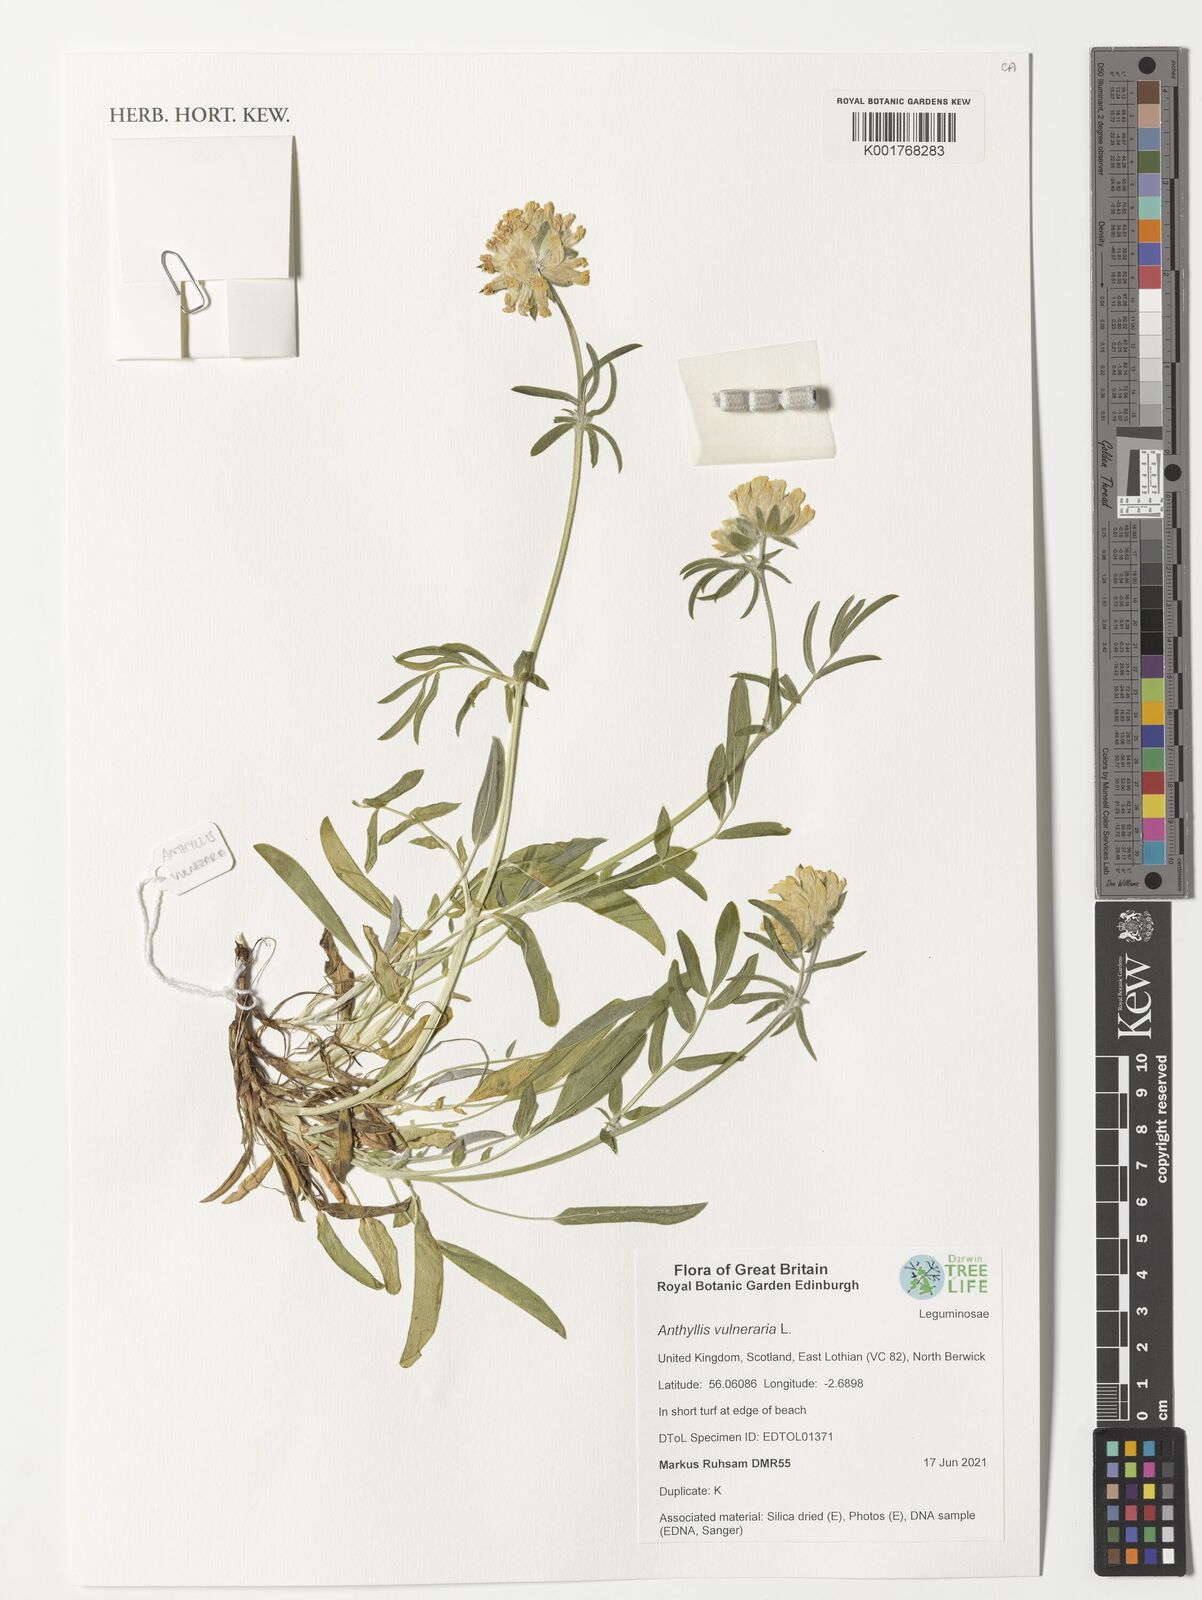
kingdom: Plantae
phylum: Tracheophyta
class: Magnoliopsida
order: Fabales
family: Fabaceae
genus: Anthyllis
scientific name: Anthyllis vulneraria
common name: Kidney vetch
